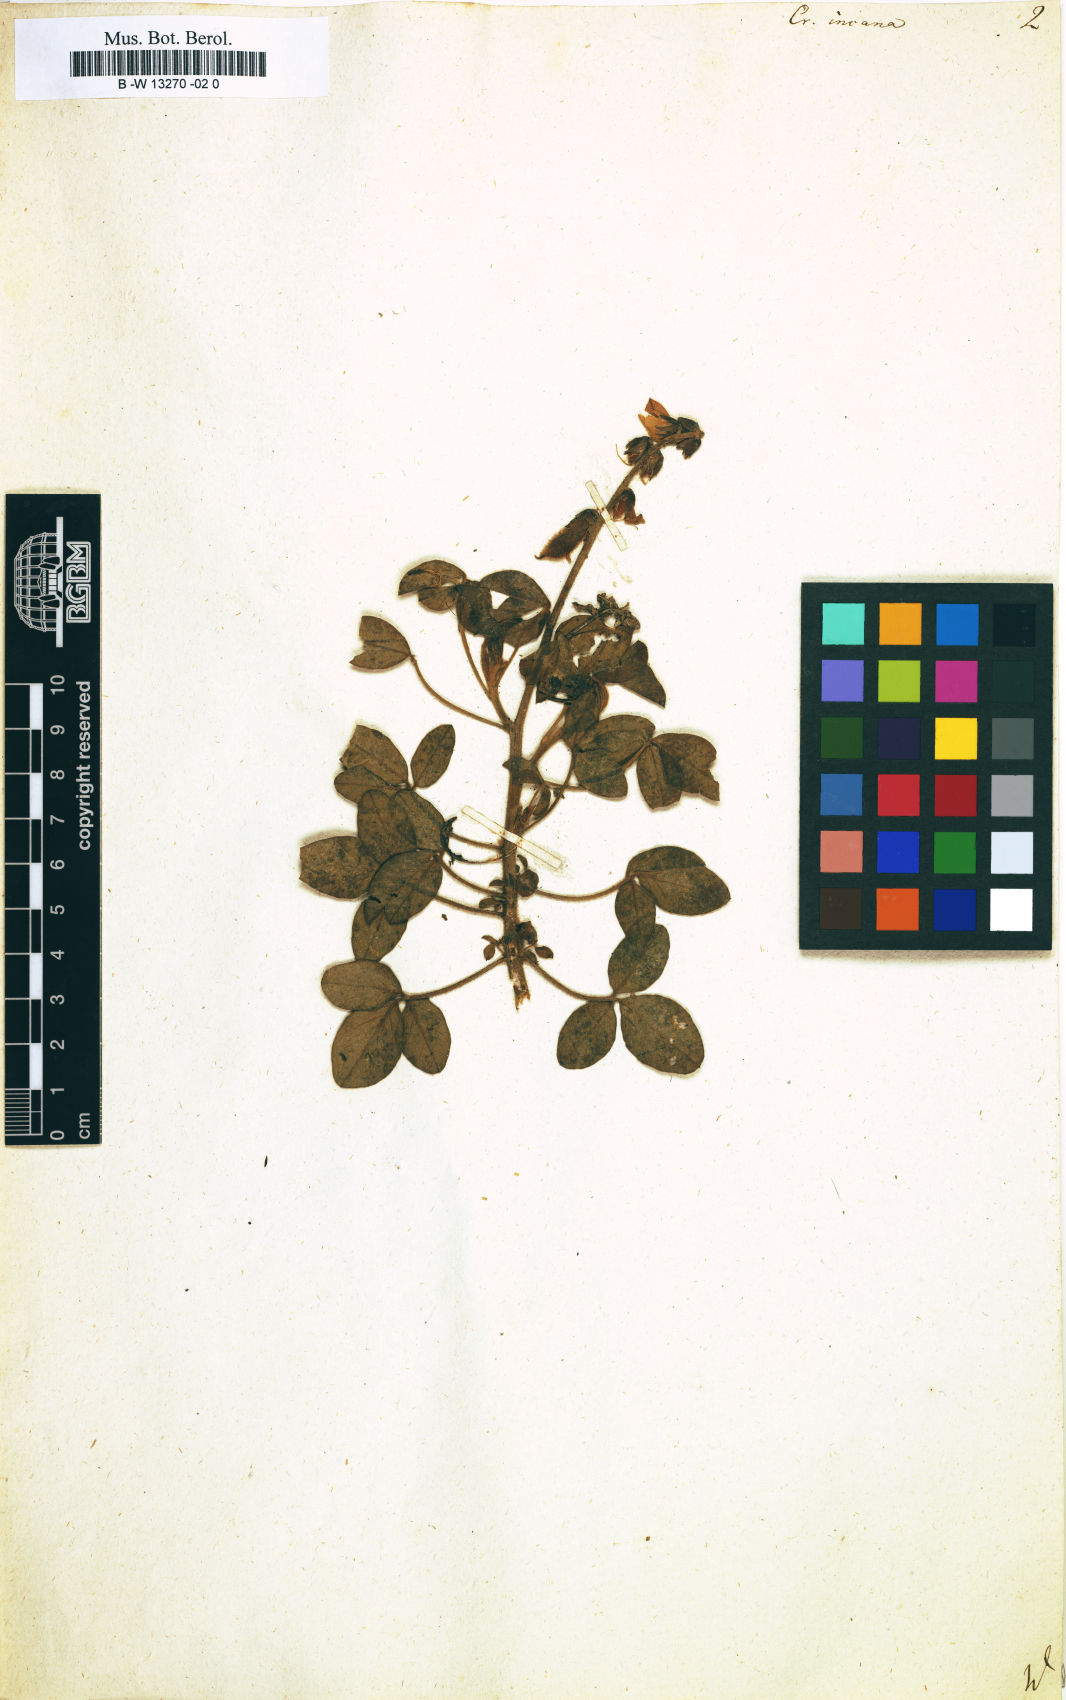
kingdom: Plantae
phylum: Tracheophyta
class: Magnoliopsida
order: Fabales
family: Fabaceae
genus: Crotalaria
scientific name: Crotalaria incana
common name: Shakeshake
